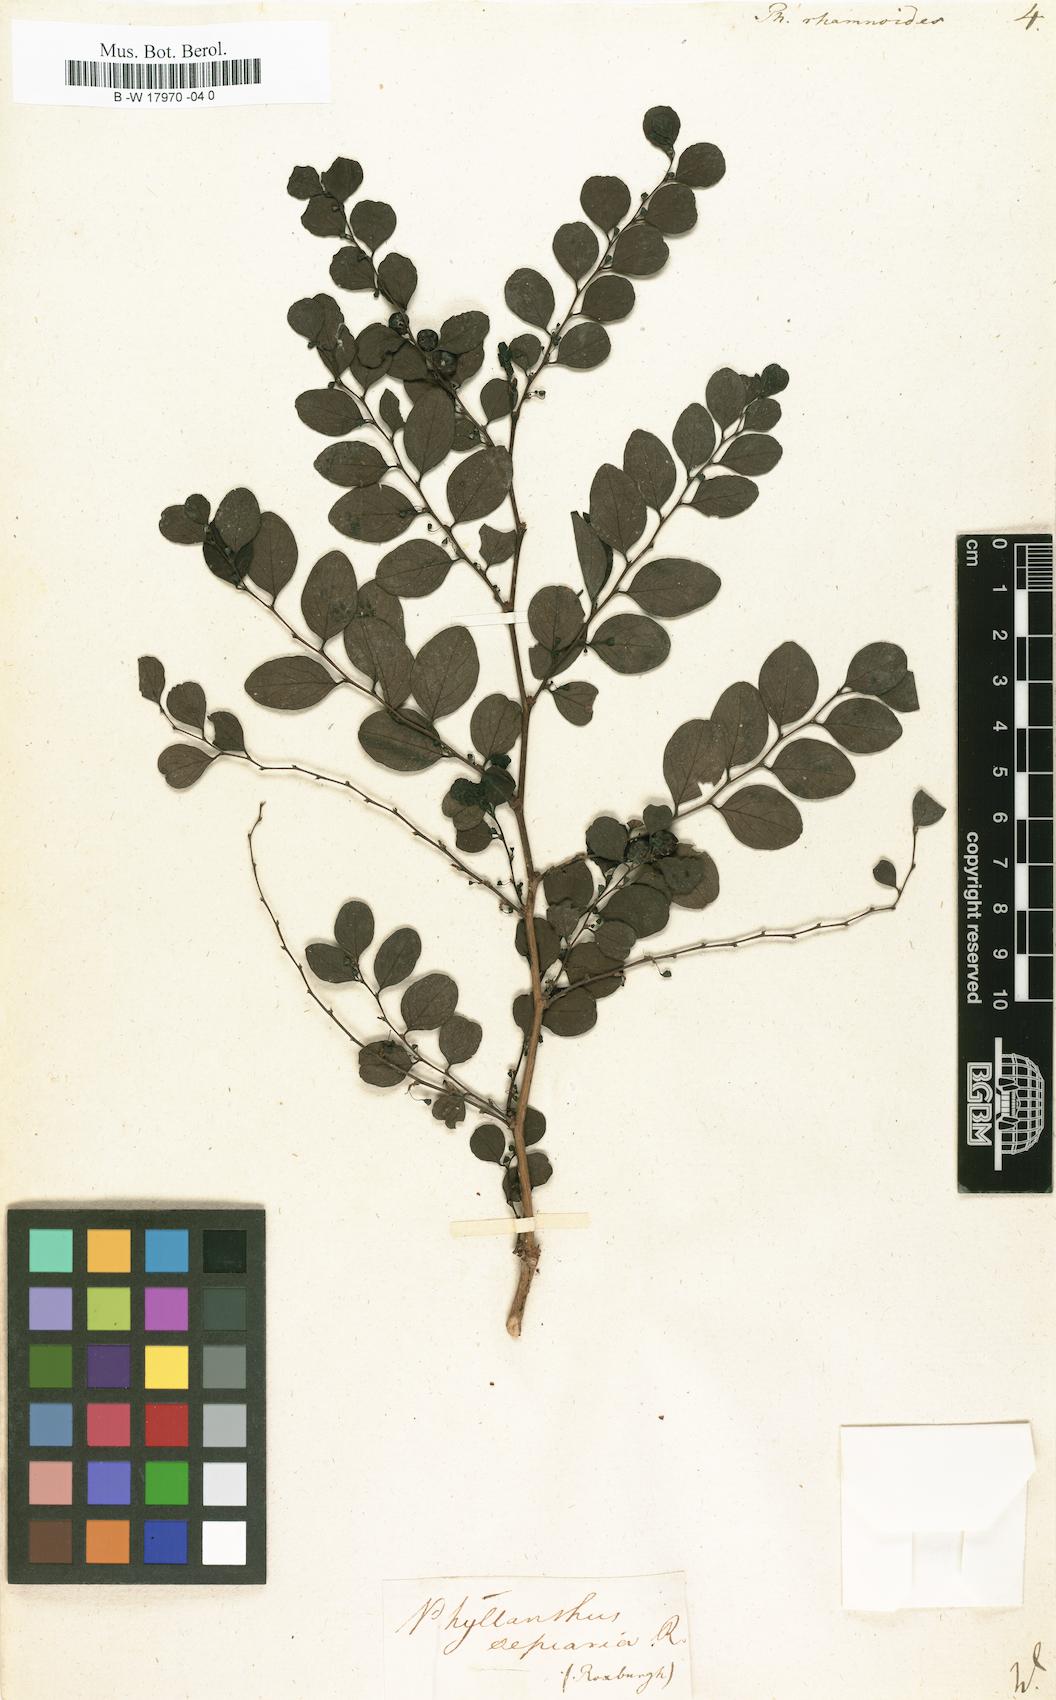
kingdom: Plantae
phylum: Tracheophyta
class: Magnoliopsida
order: Malpighiales
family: Phyllanthaceae
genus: Breynia
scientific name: Breynia vitis-idaea
